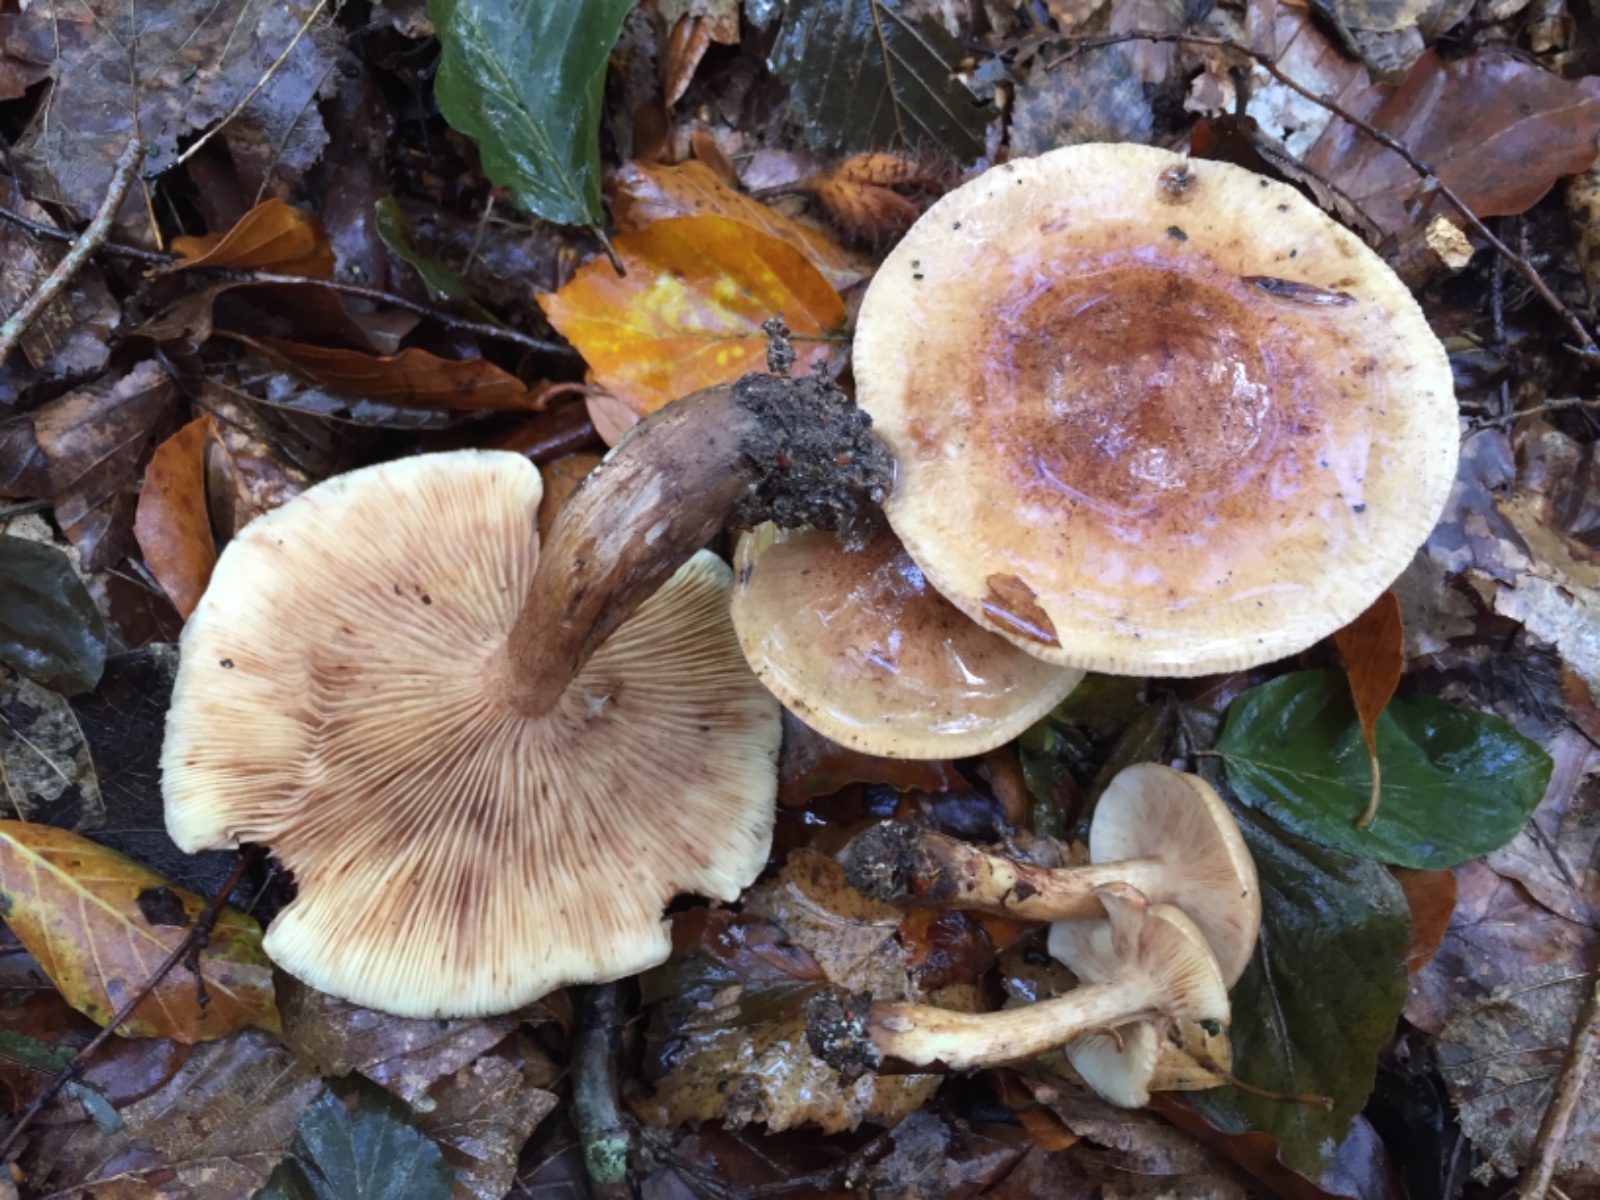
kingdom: Fungi
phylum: Basidiomycota
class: Agaricomycetes
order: Agaricales
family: Tricholomataceae
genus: Tricholoma
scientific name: Tricholoma fulvum
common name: birke-ridderhat
